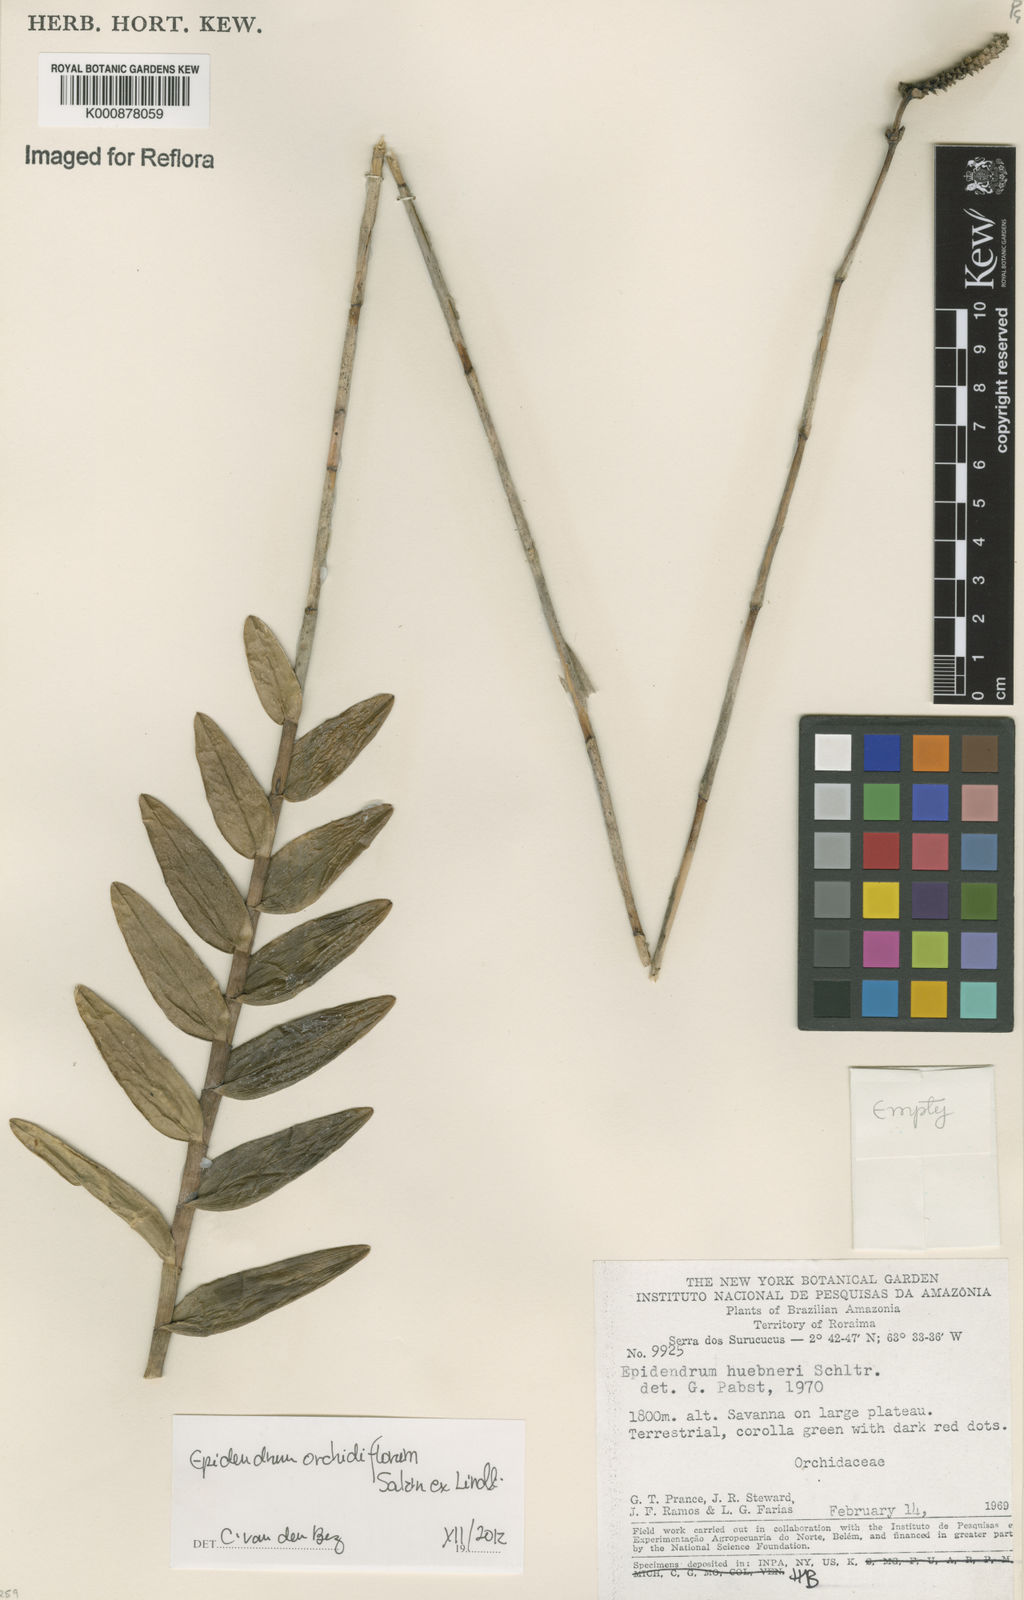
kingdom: Plantae
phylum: Tracheophyta
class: Liliopsida
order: Asparagales
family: Orchidaceae
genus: Epidendrum
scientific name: Epidendrum orchidiflorum
